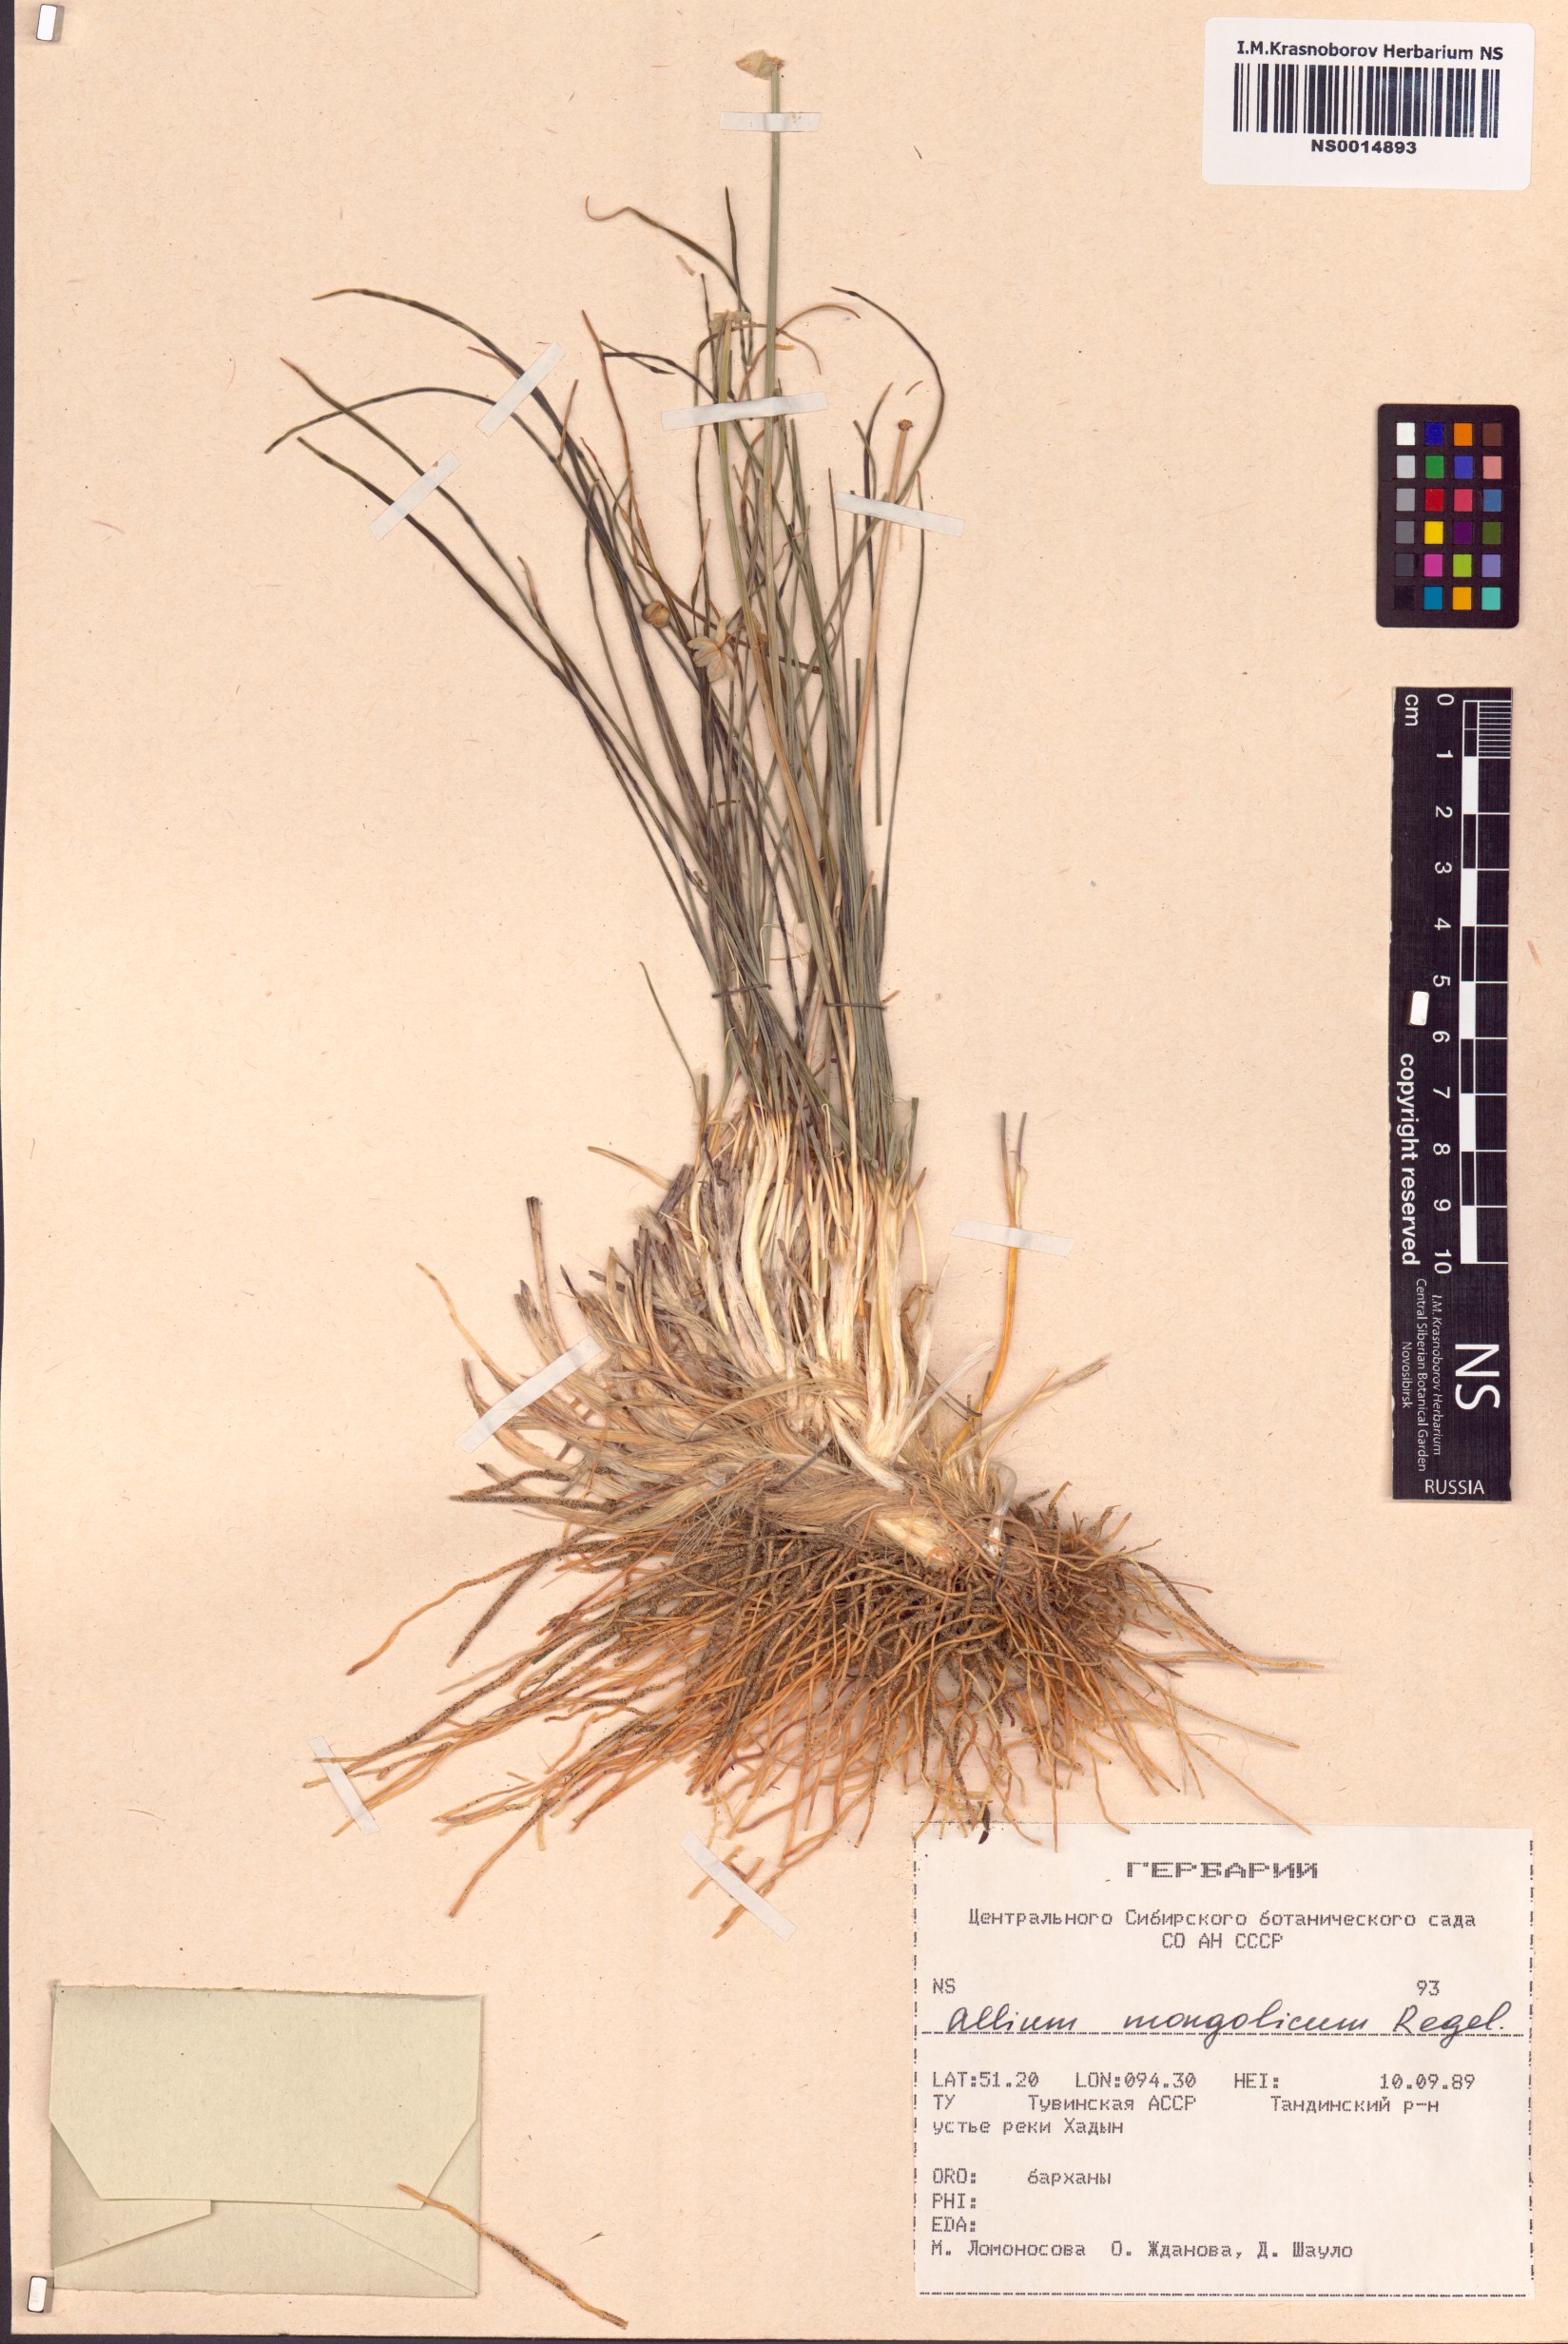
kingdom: Plantae
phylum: Tracheophyta
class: Liliopsida
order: Asparagales
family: Amaryllidaceae
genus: Allium
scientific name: Allium mongolicum
